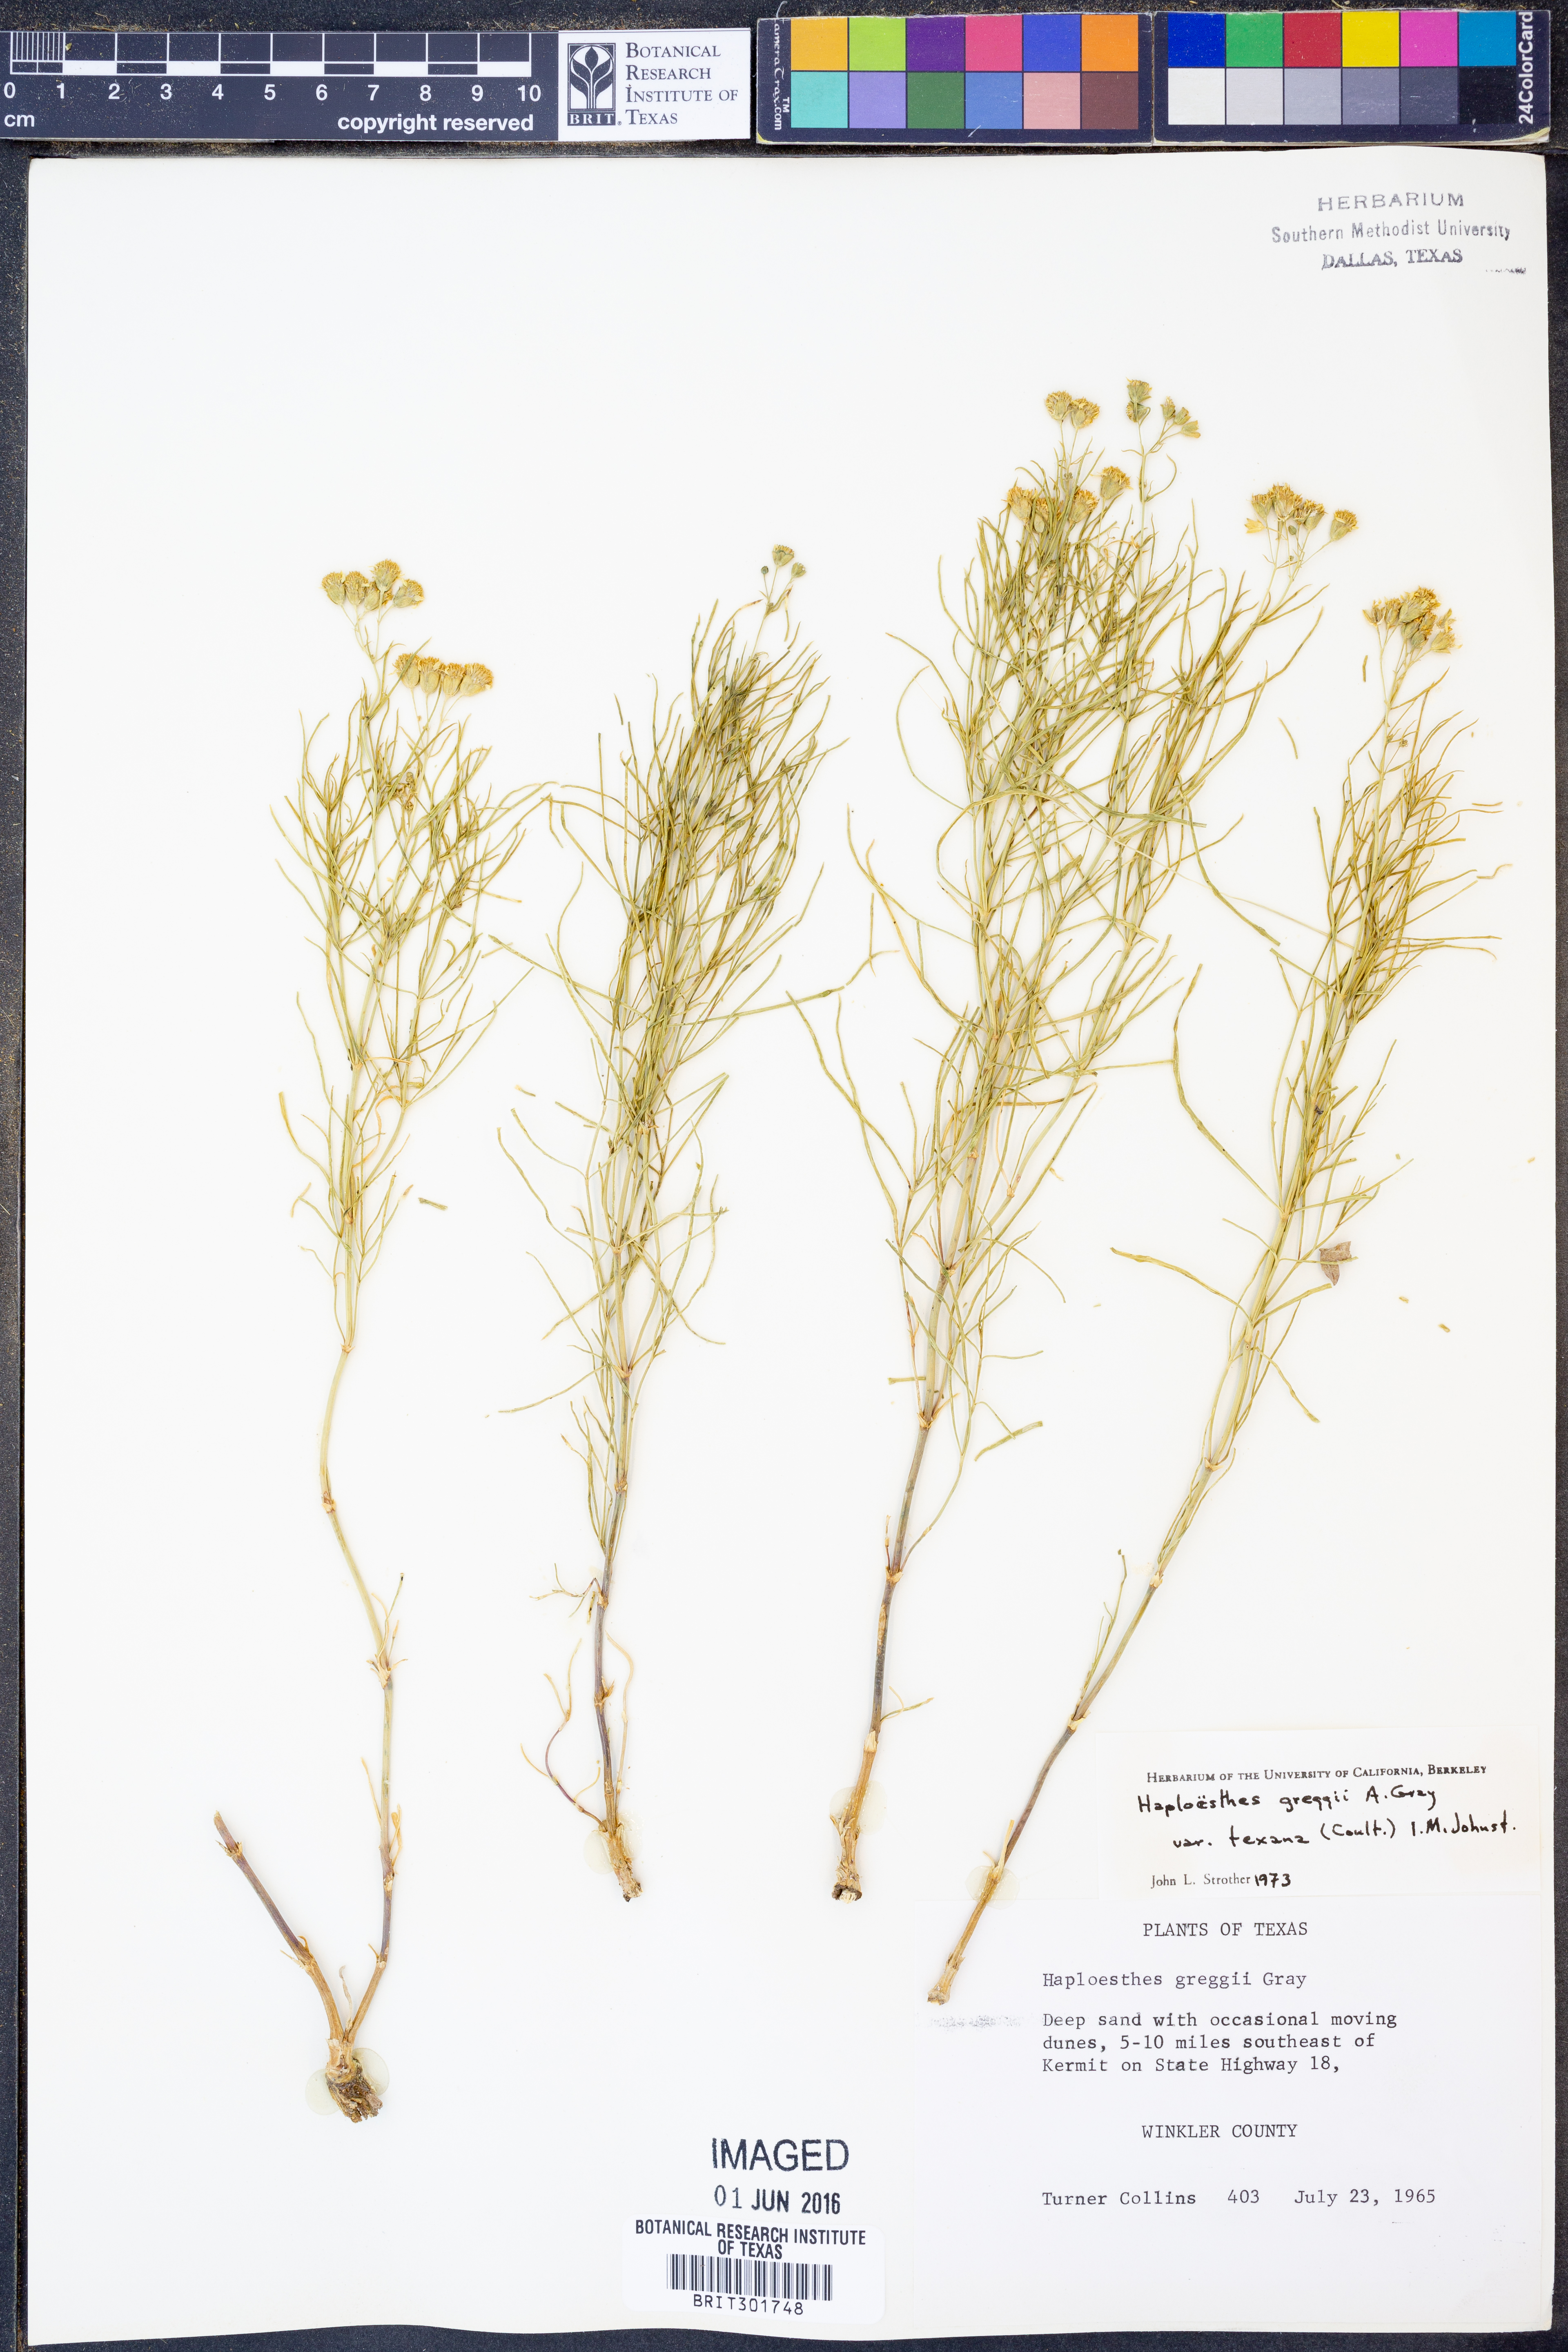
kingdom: Plantae
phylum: Tracheophyta
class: Magnoliopsida
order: Asterales
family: Asteraceae
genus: Haploesthes
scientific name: Haploesthes greggii
